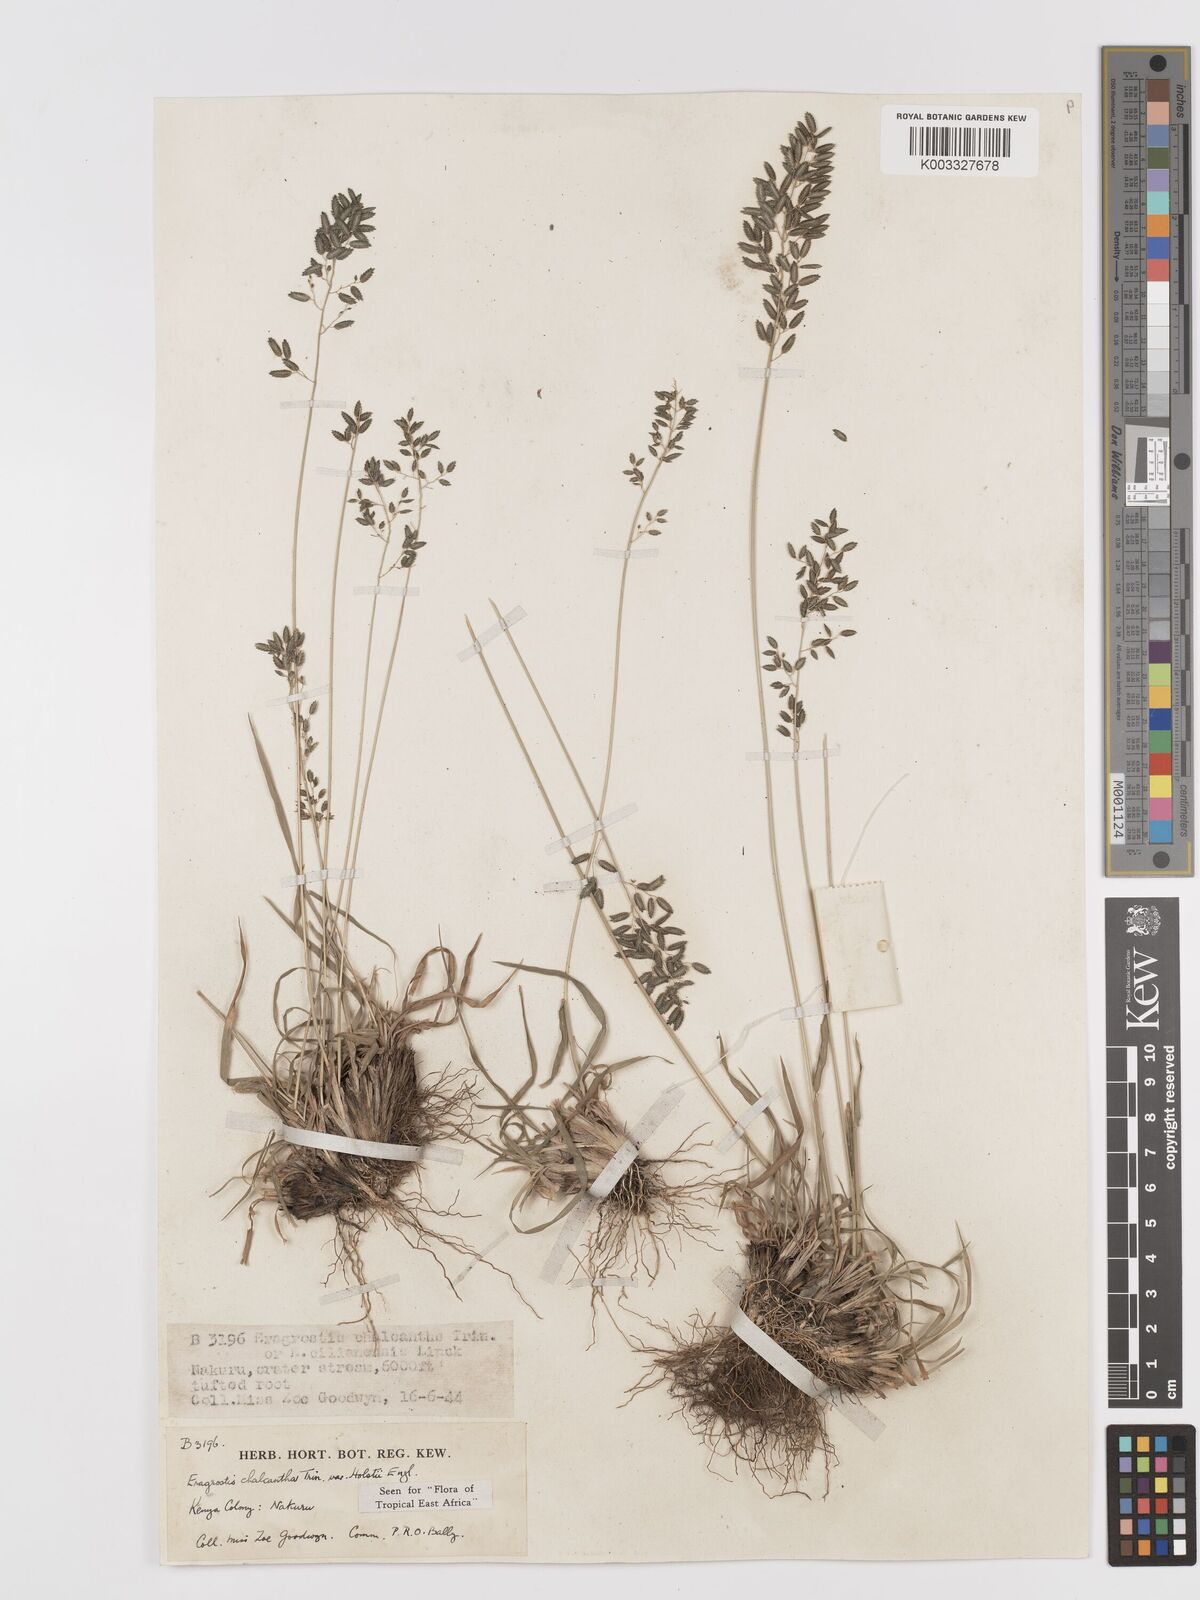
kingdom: Plantae
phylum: Tracheophyta
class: Liliopsida
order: Poales
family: Poaceae
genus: Eragrostis
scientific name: Eragrostis racemosa
